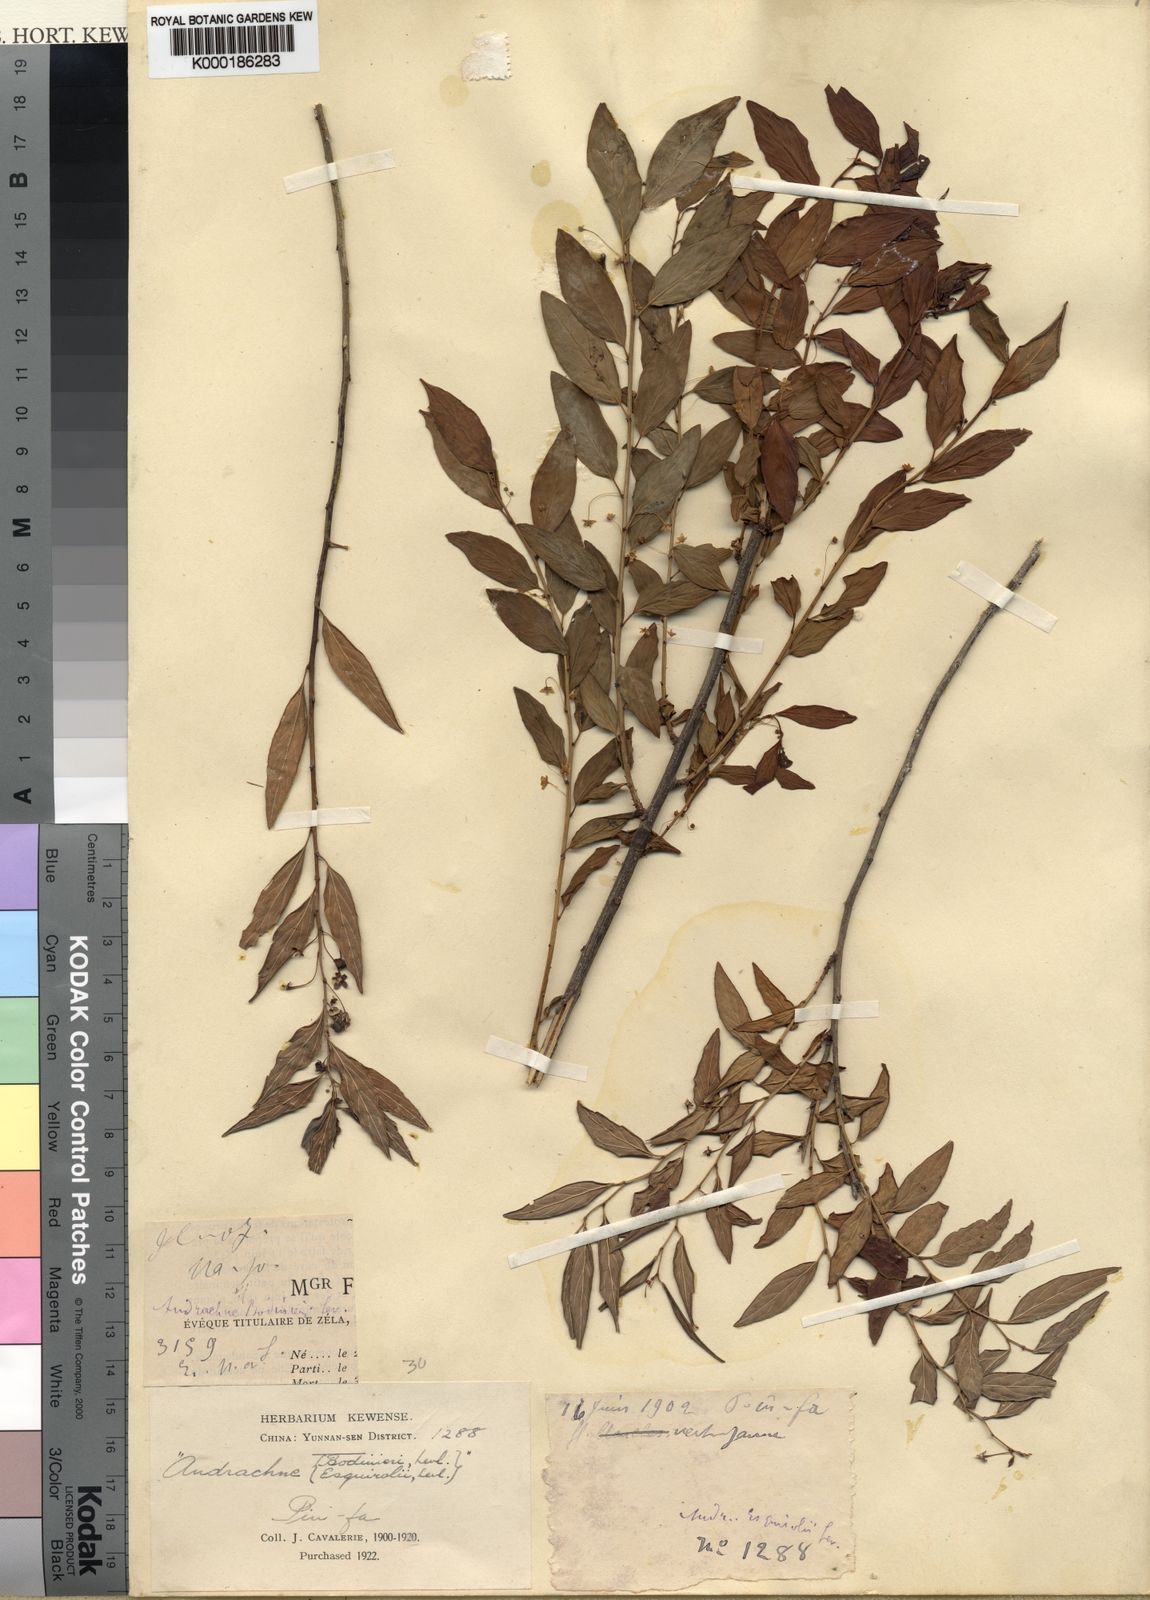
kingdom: Plantae
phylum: Tracheophyta
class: Magnoliopsida
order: Malpighiales
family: Phyllanthaceae
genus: Leptopus
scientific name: Leptopus clarkei
